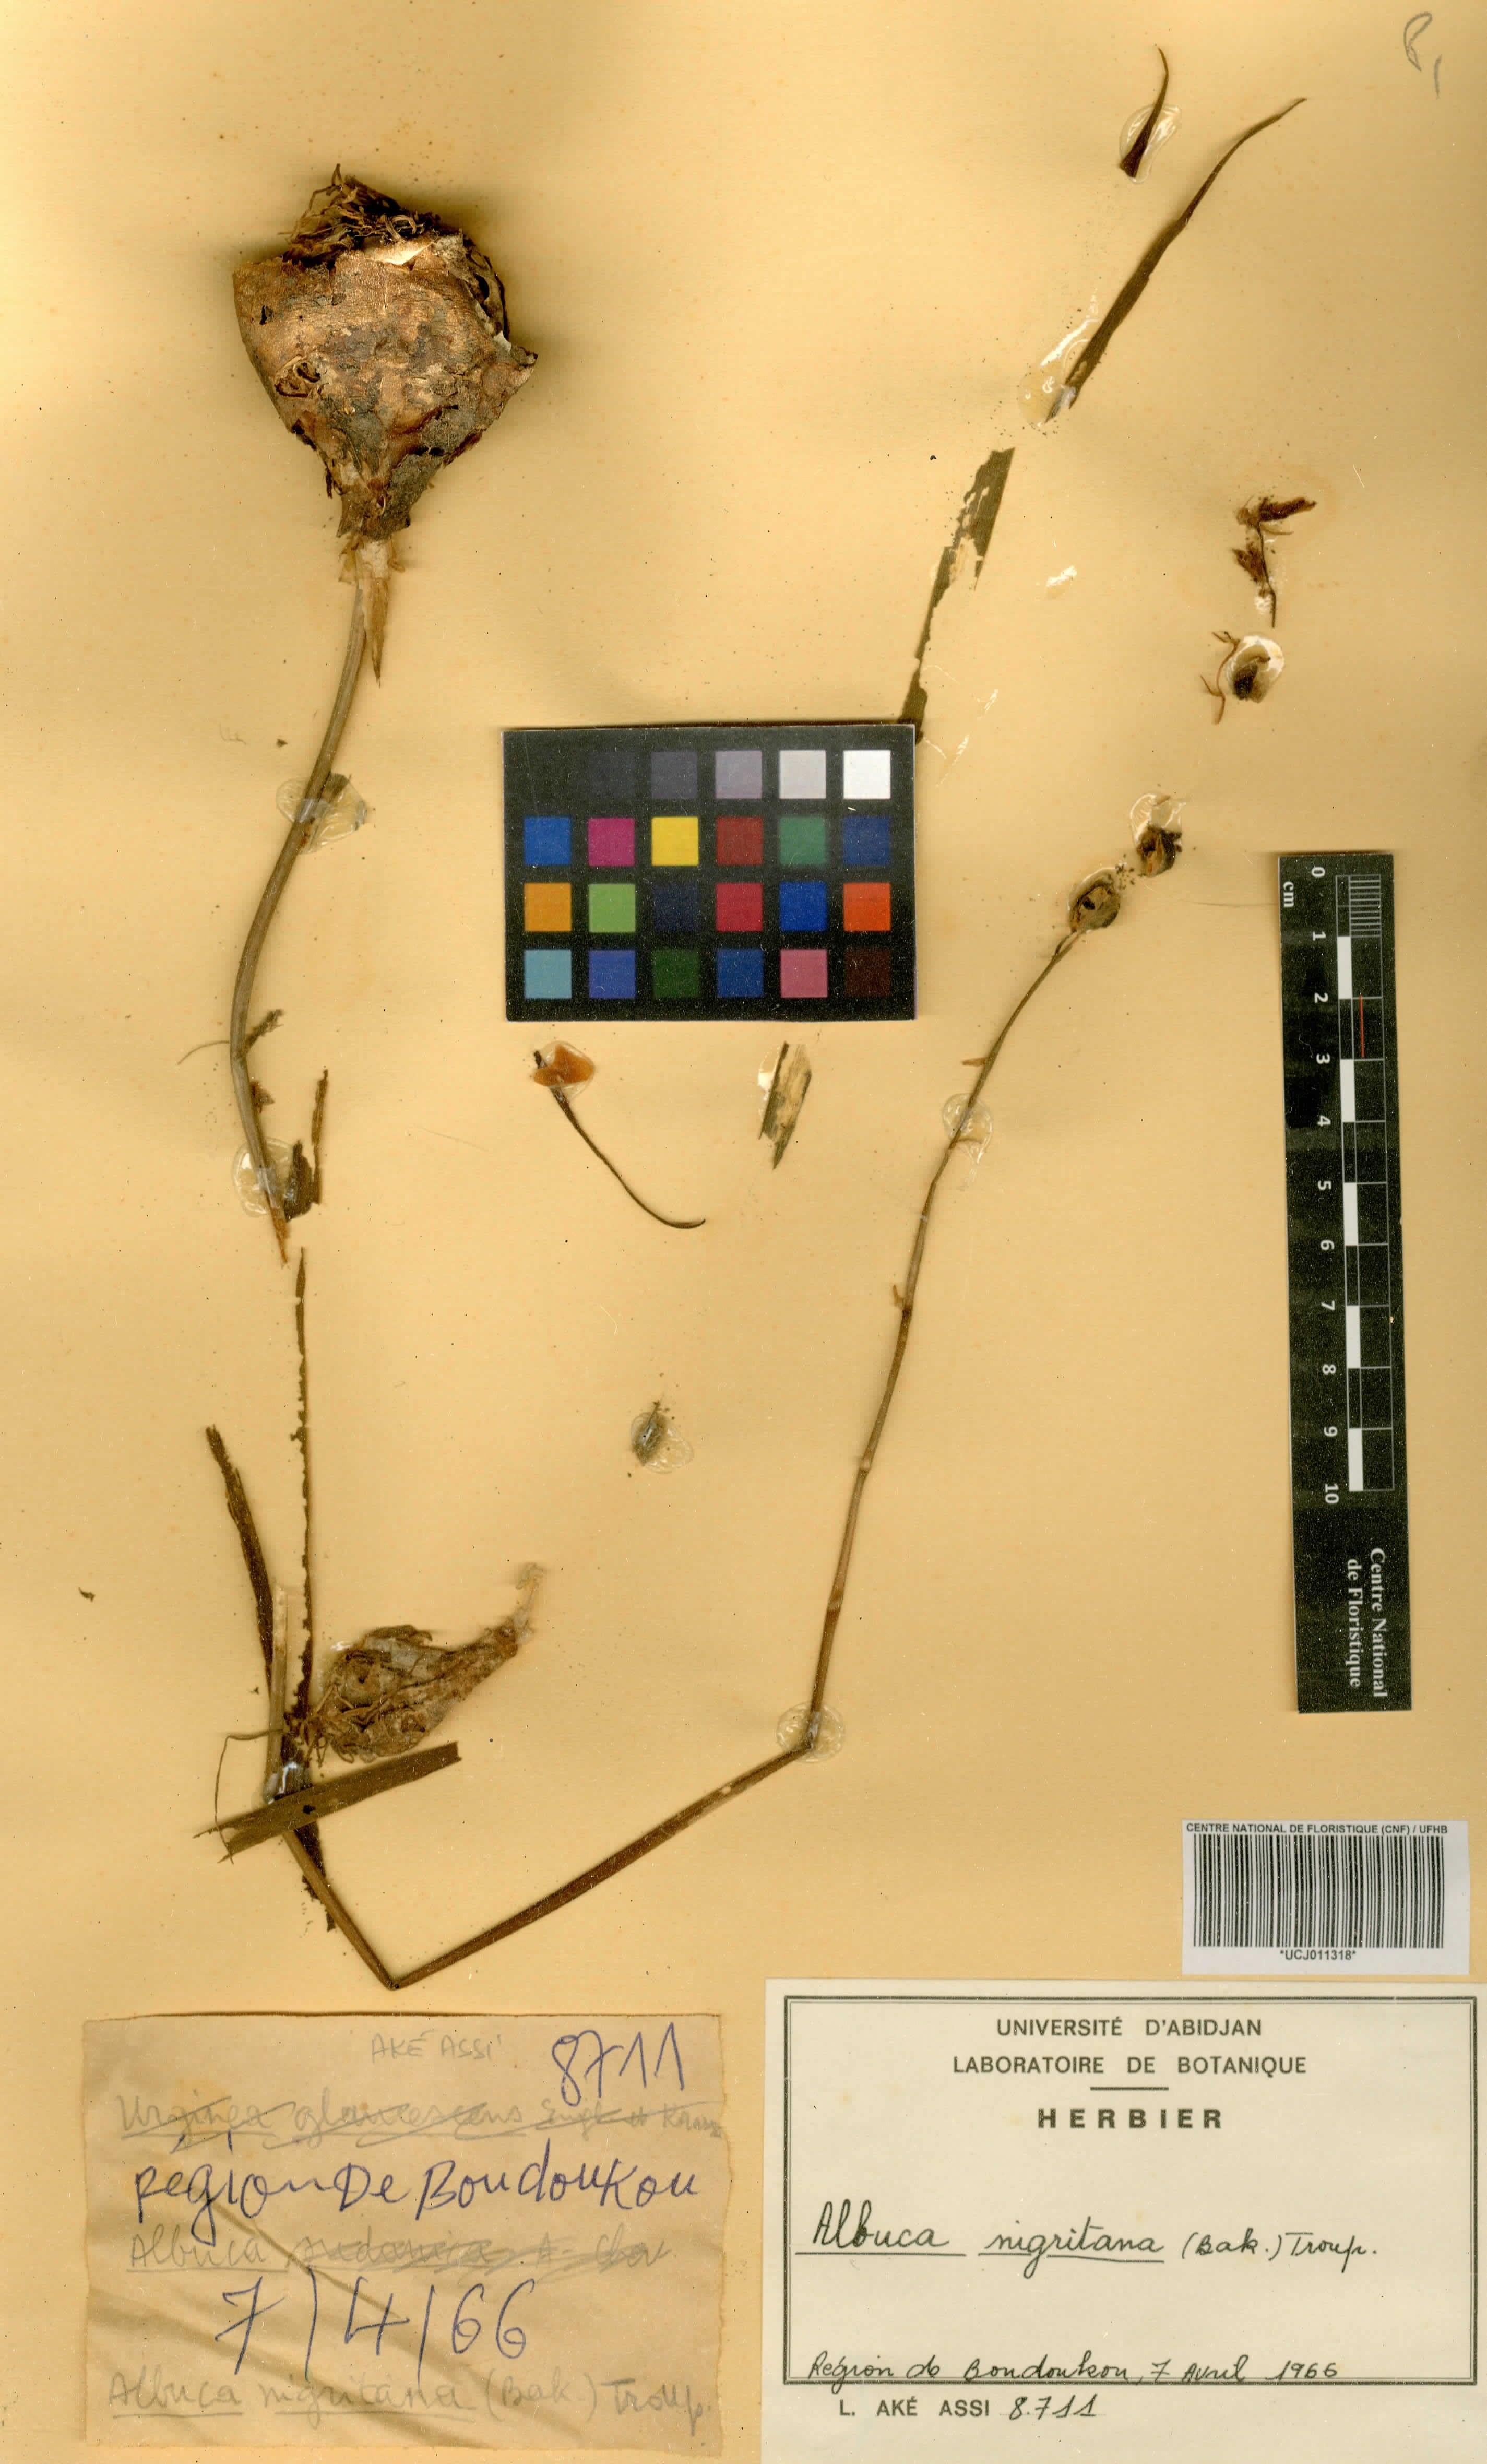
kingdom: Plantae
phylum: Tracheophyta
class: Liliopsida
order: Asparagales
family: Asparagaceae
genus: Albuca
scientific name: Albuca sudanica
